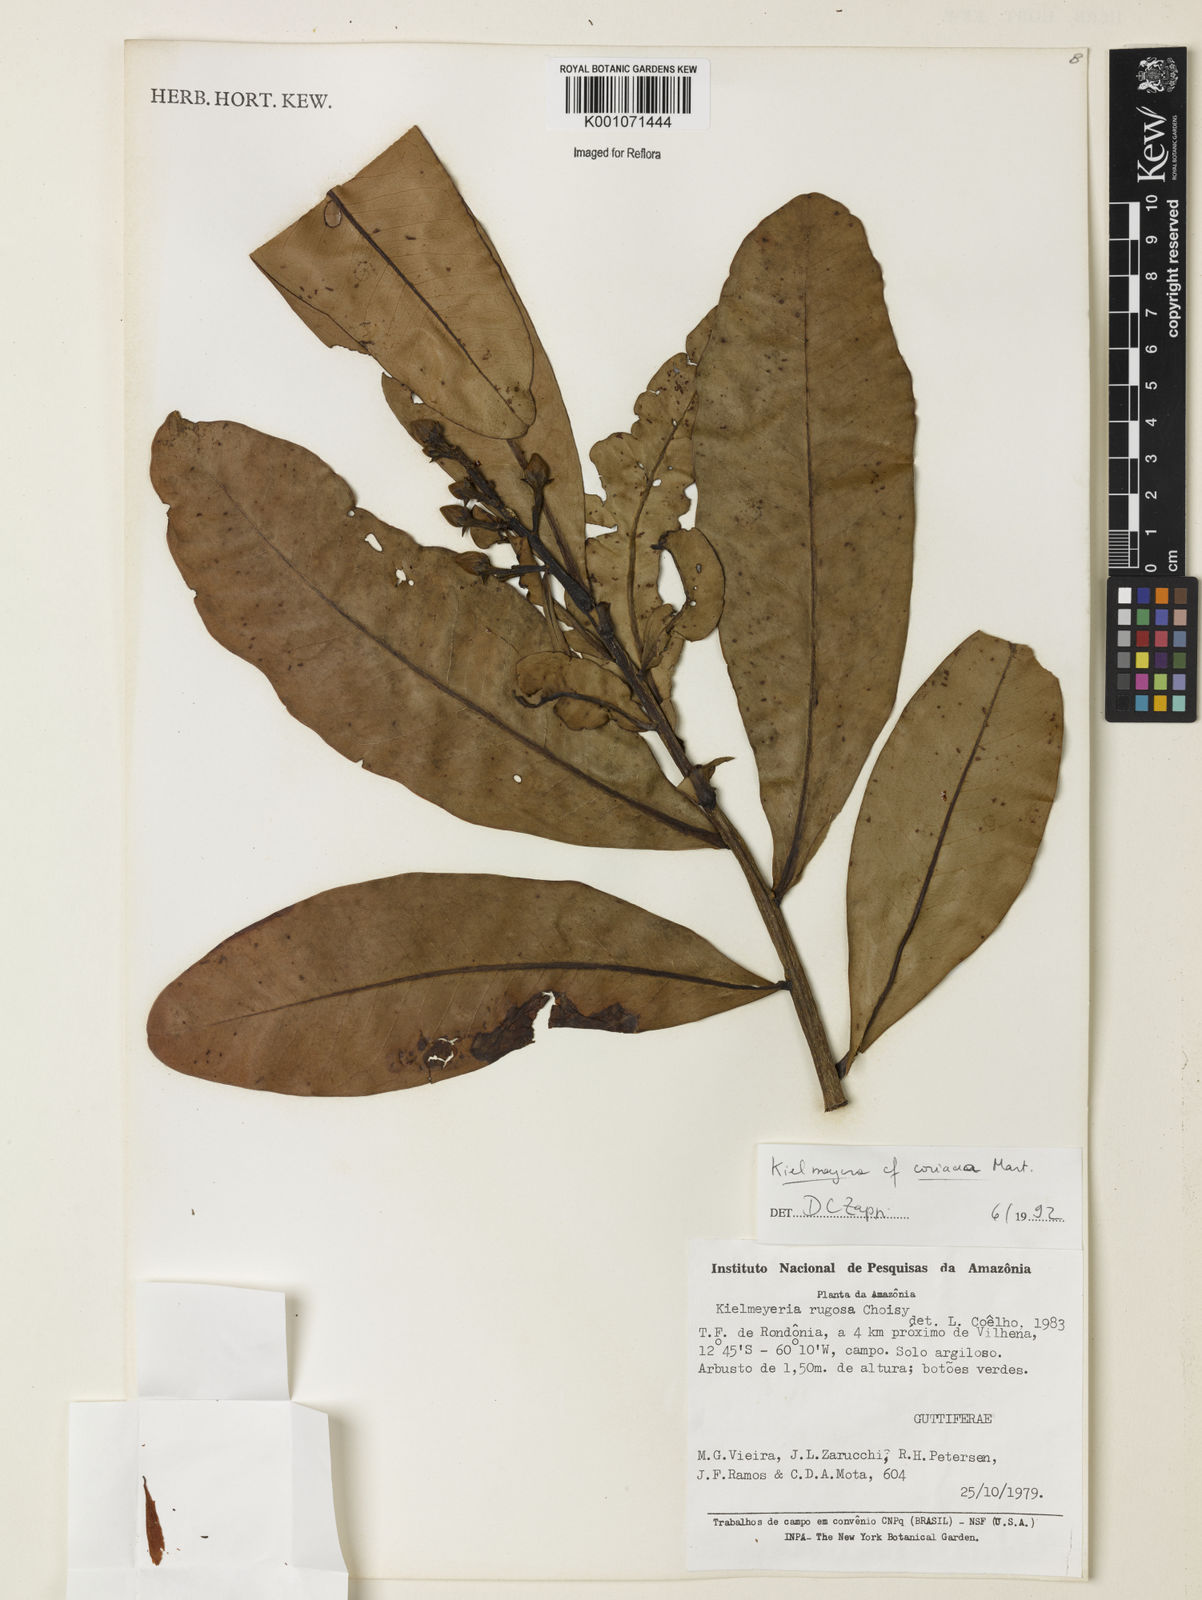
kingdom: Plantae
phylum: Tracheophyta
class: Magnoliopsida
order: Malpighiales
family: Calophyllaceae
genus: Kielmeyera
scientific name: Kielmeyera coriacea
